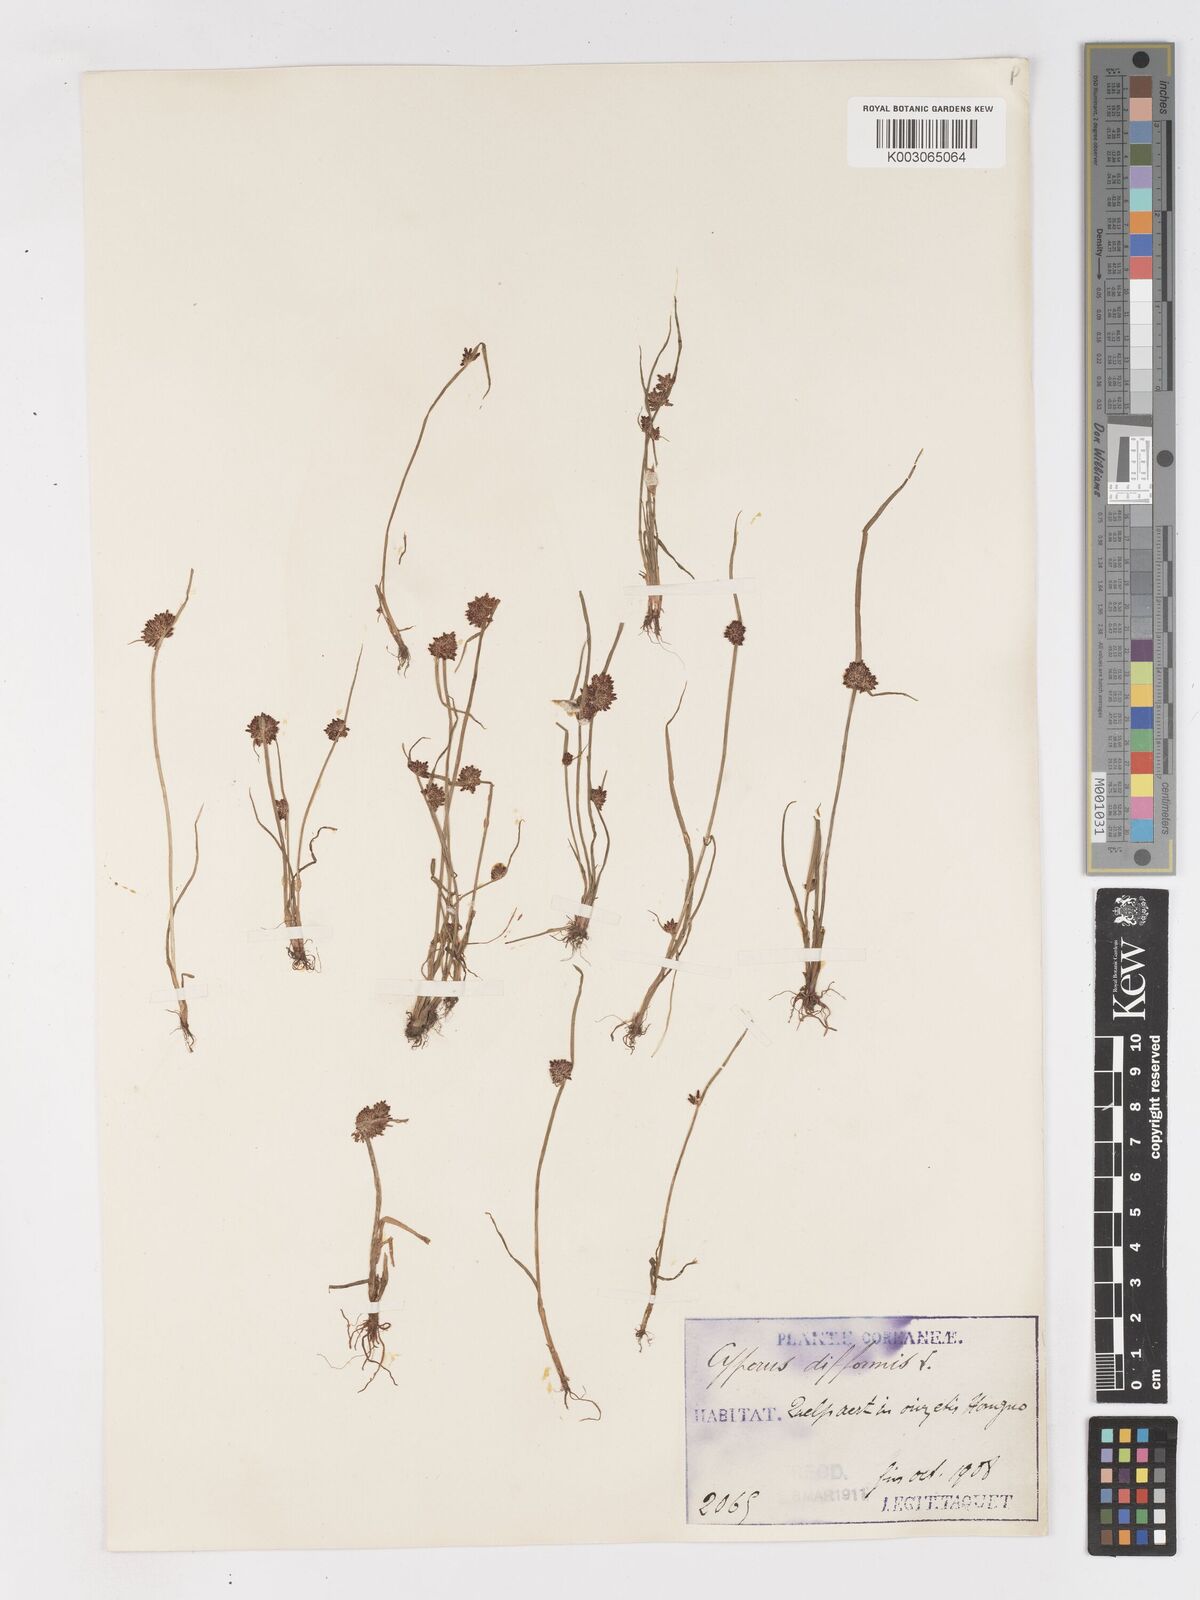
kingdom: Plantae
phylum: Tracheophyta
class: Liliopsida
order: Poales
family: Cyperaceae
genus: Cyperus
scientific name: Cyperus difformis
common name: Variable flatsedge
